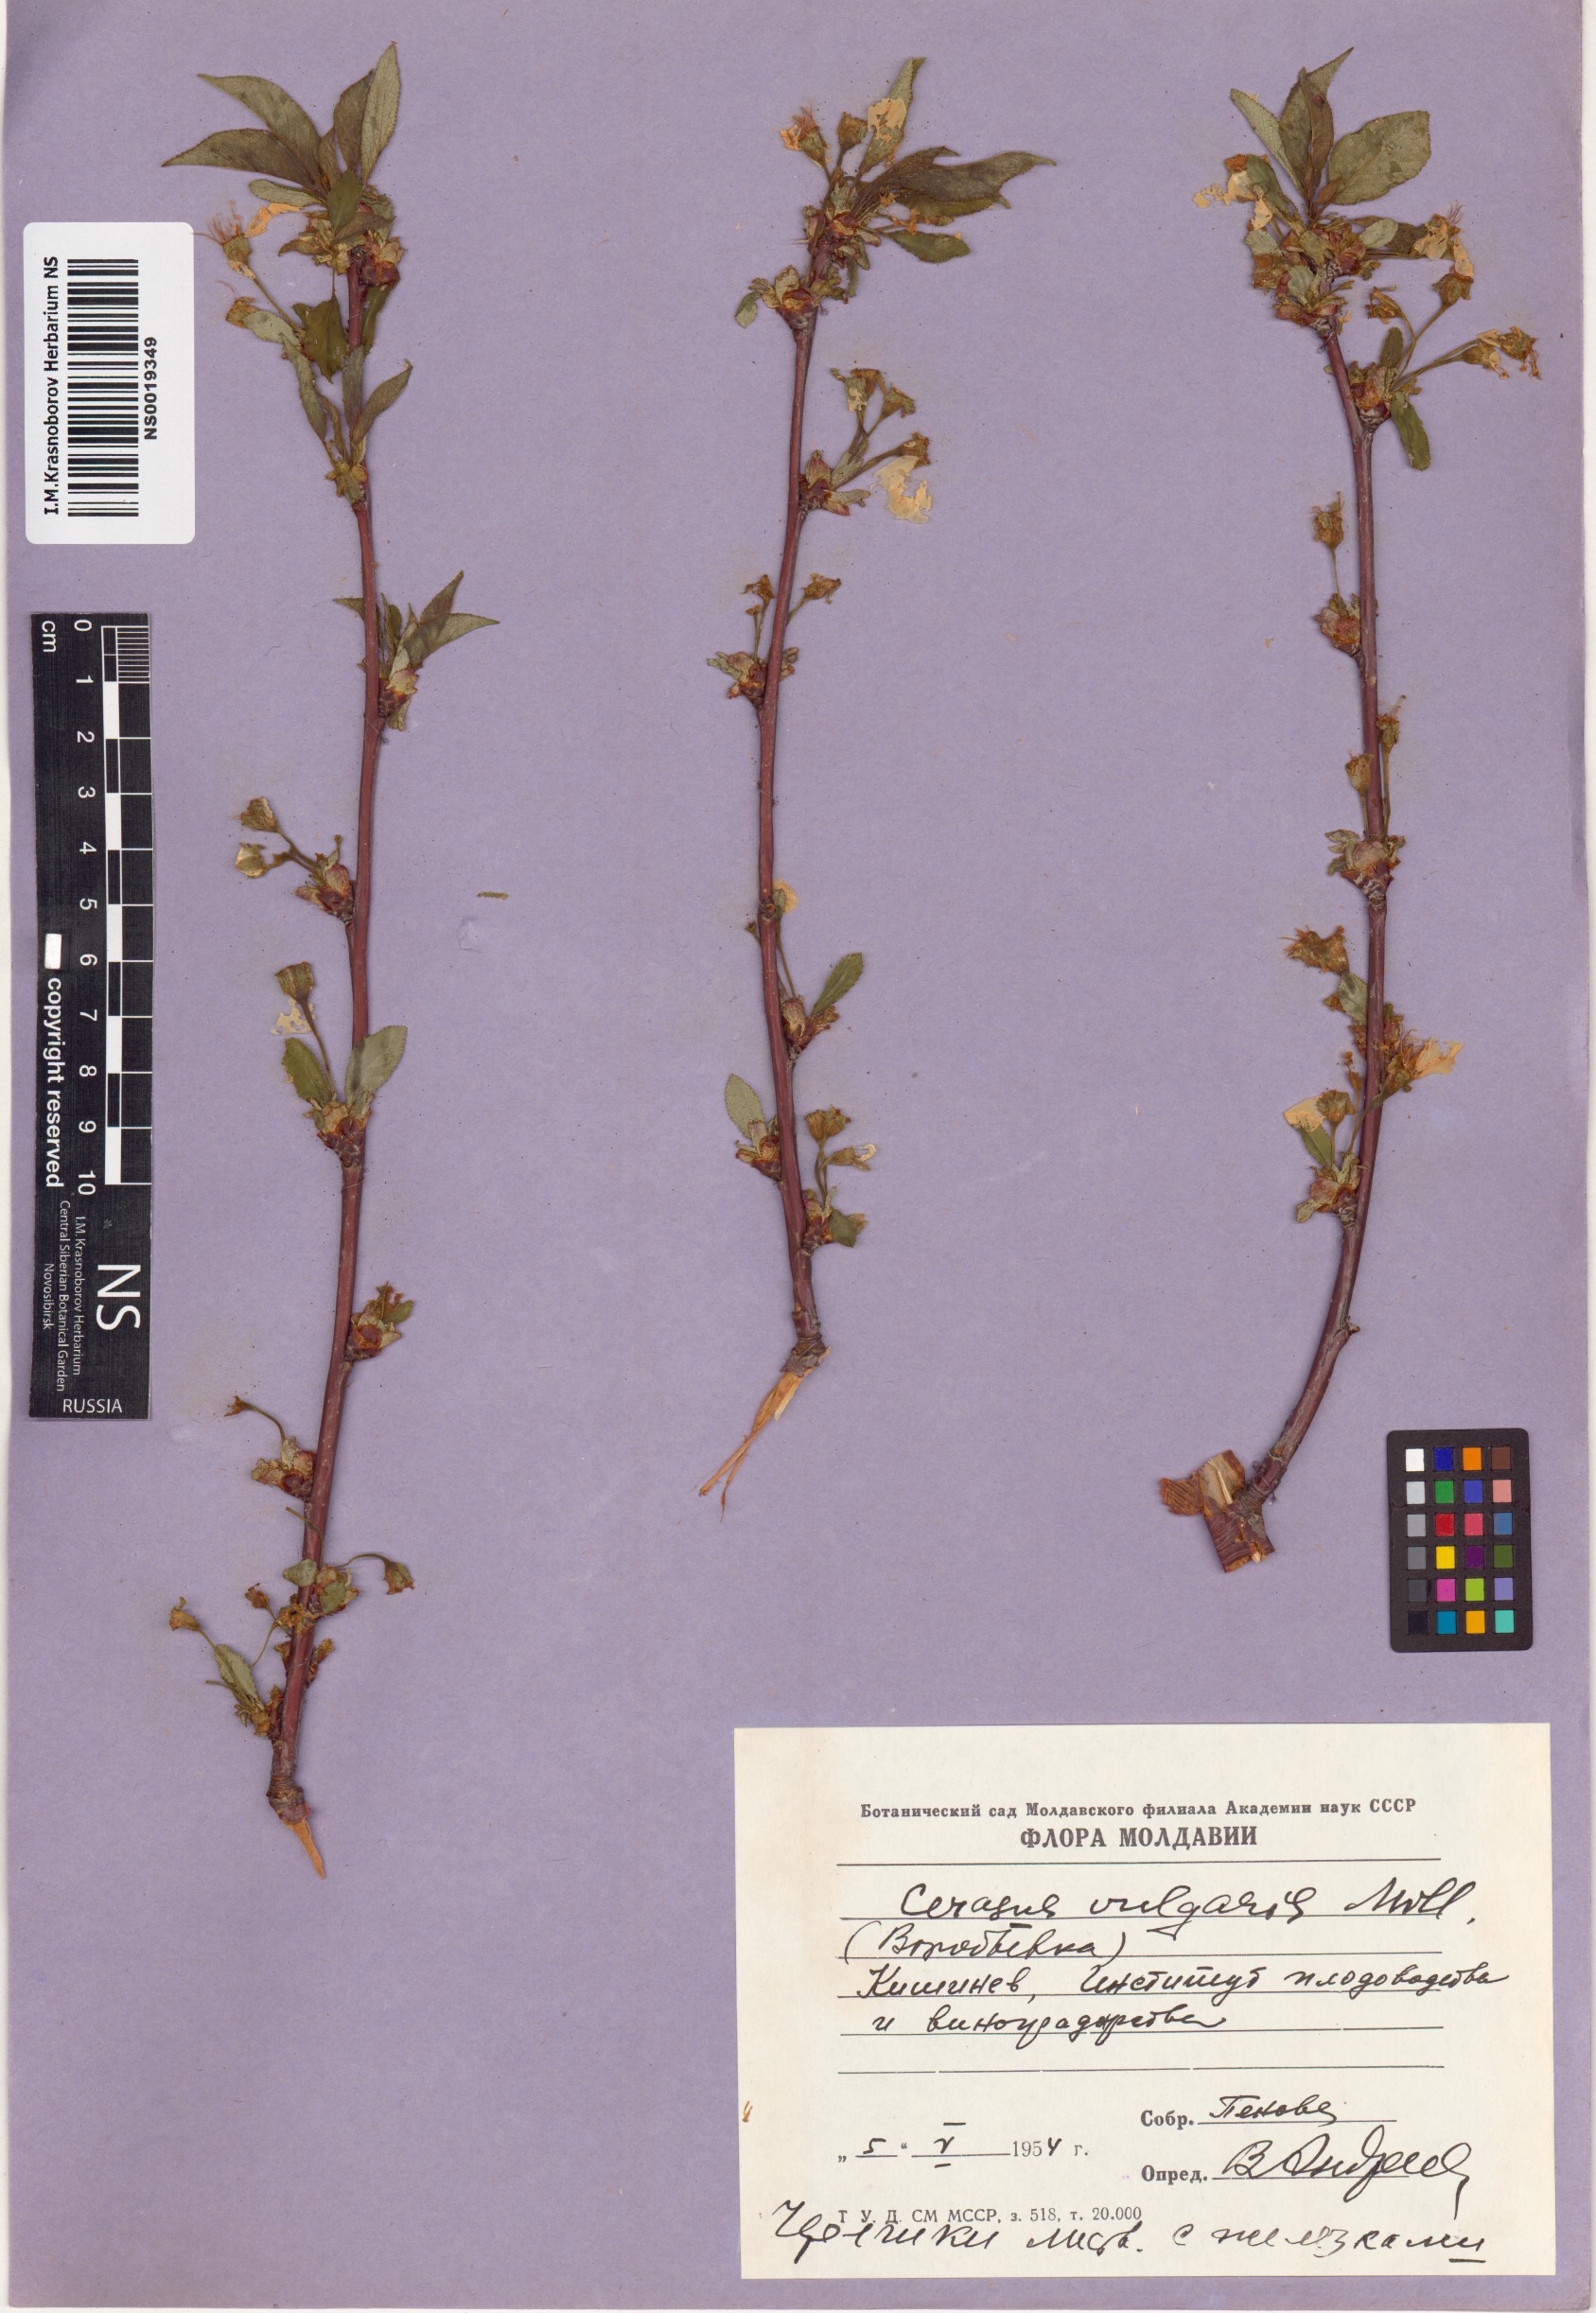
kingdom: Plantae
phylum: Tracheophyta
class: Magnoliopsida
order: Rosales
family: Rosaceae
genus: Prunus
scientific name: Prunus cerasus
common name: Morello cherry
